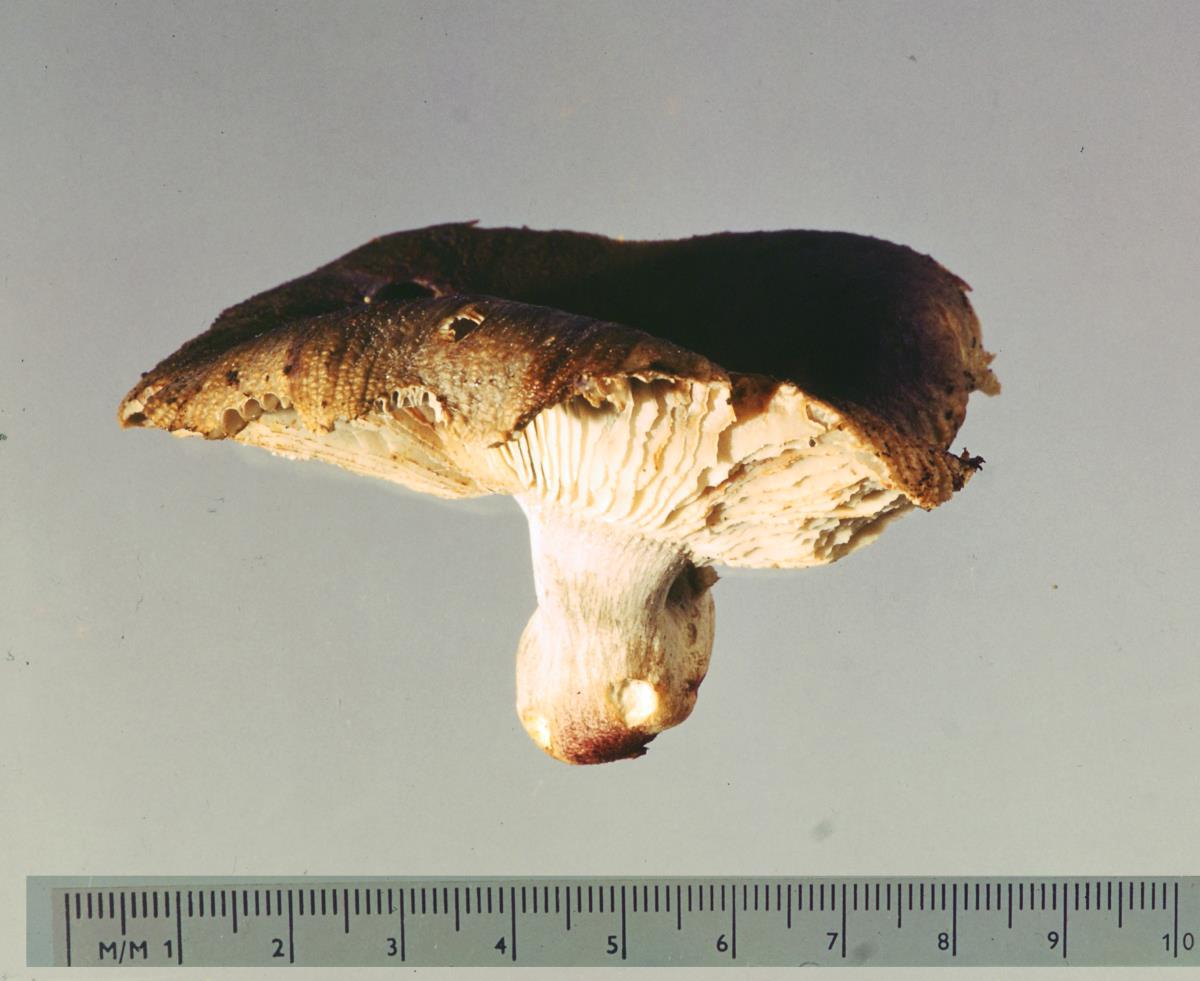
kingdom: Fungi
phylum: Basidiomycota
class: Agaricomycetes
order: Russulales
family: Russulaceae
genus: Russula
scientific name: Russula vinaceocuticulata
